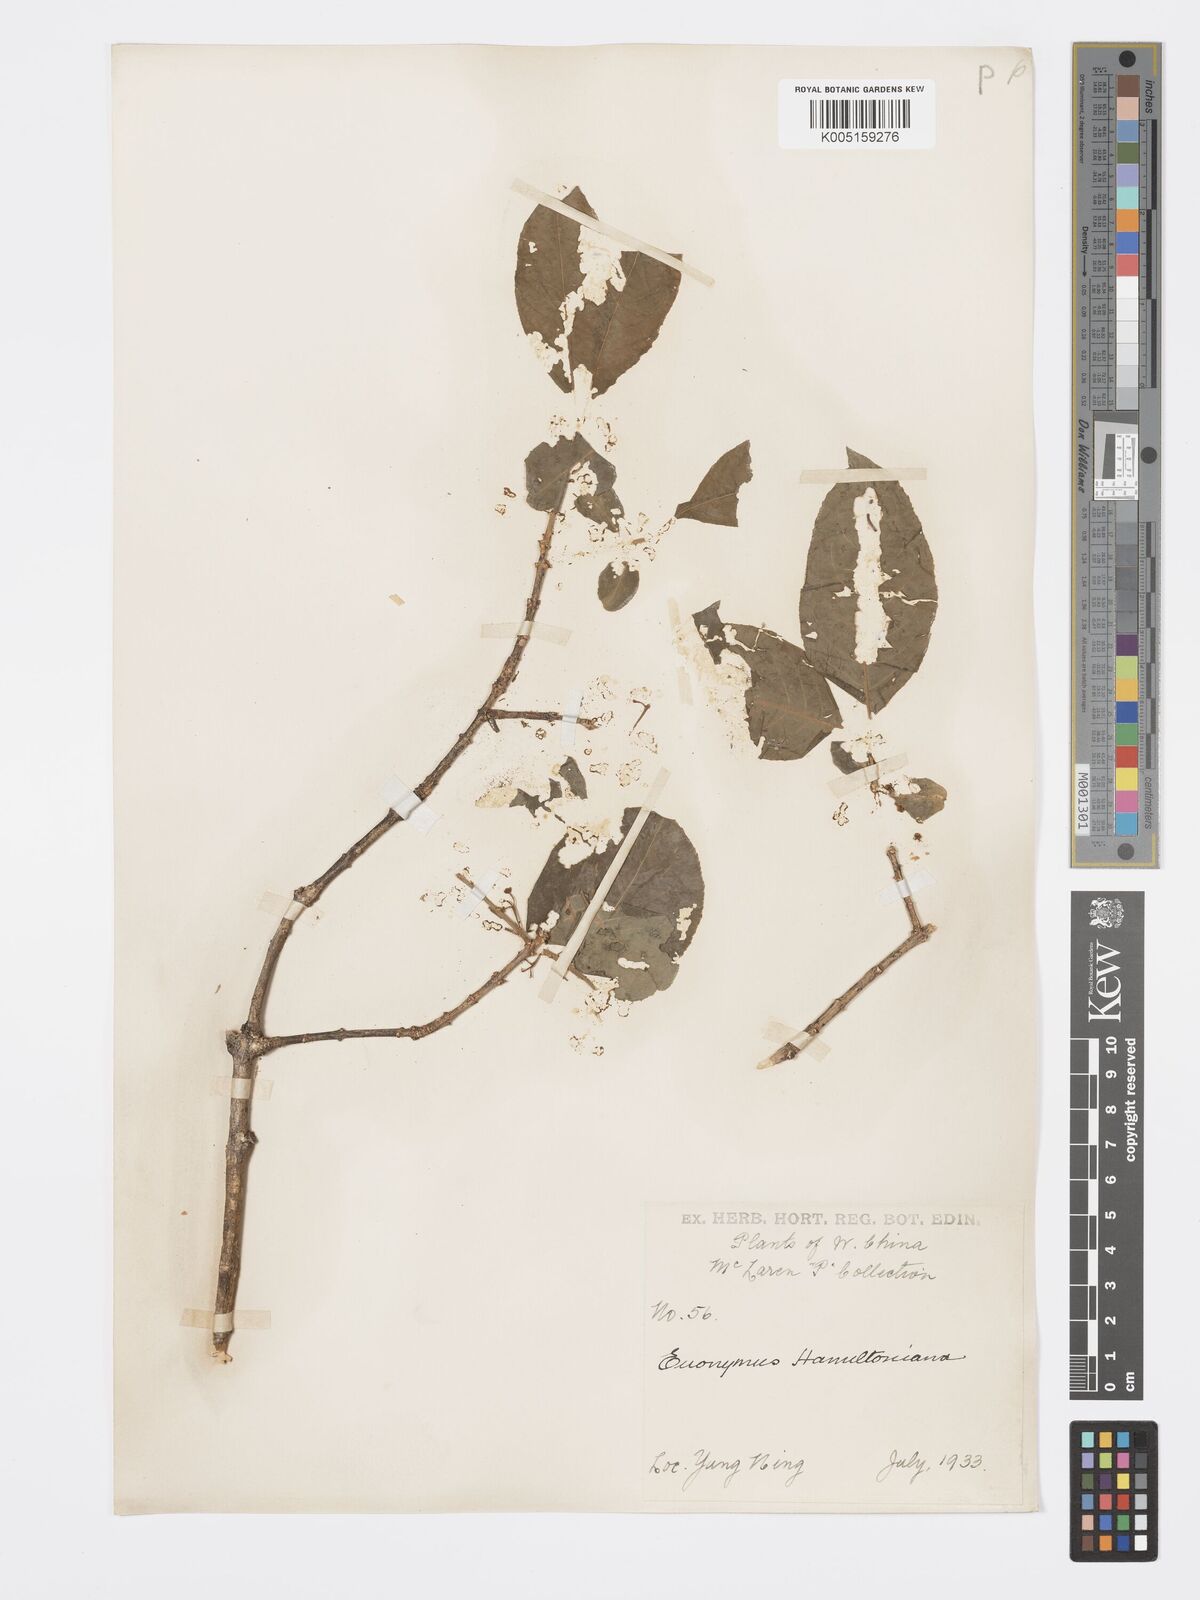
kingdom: Plantae
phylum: Tracheophyta
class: Magnoliopsida
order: Celastrales
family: Celastraceae
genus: Euonymus
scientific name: Euonymus hamiltonianus
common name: Hamilton's spindletree
